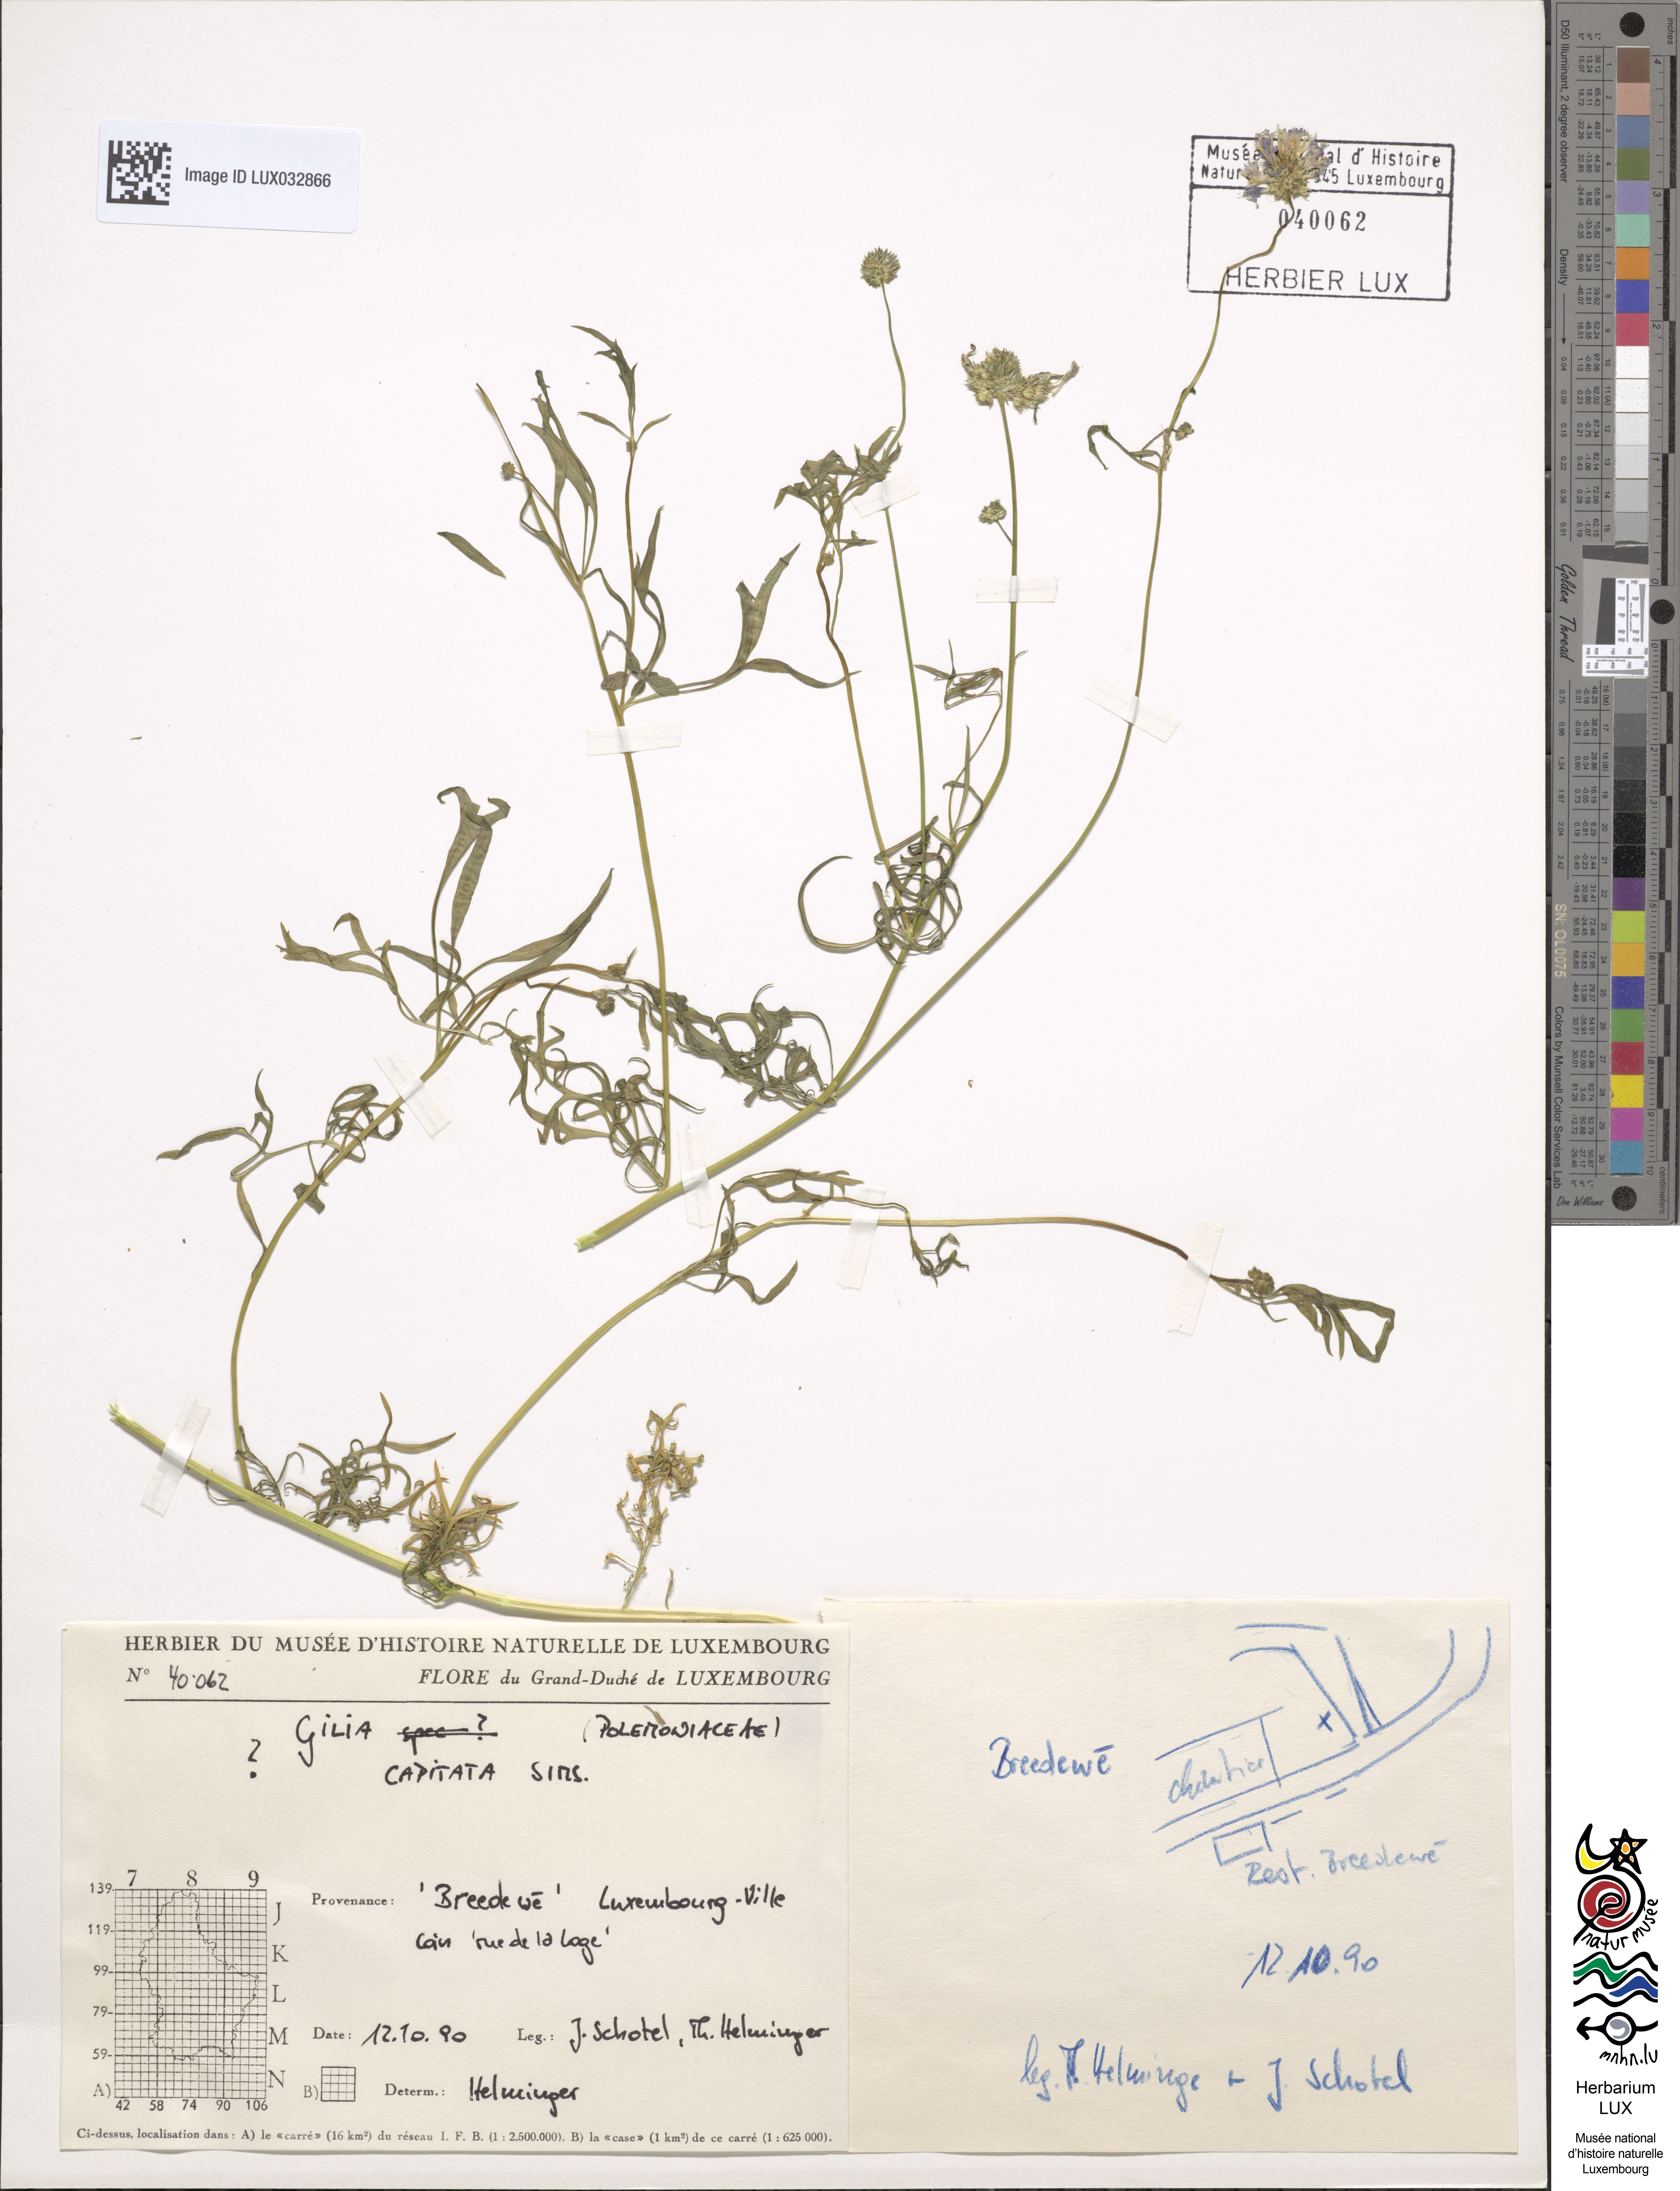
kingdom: Plantae
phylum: Tracheophyta
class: Magnoliopsida
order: Ericales
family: Polemoniaceae
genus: Gilia
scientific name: Gilia capitata
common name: Bluehead gilia
